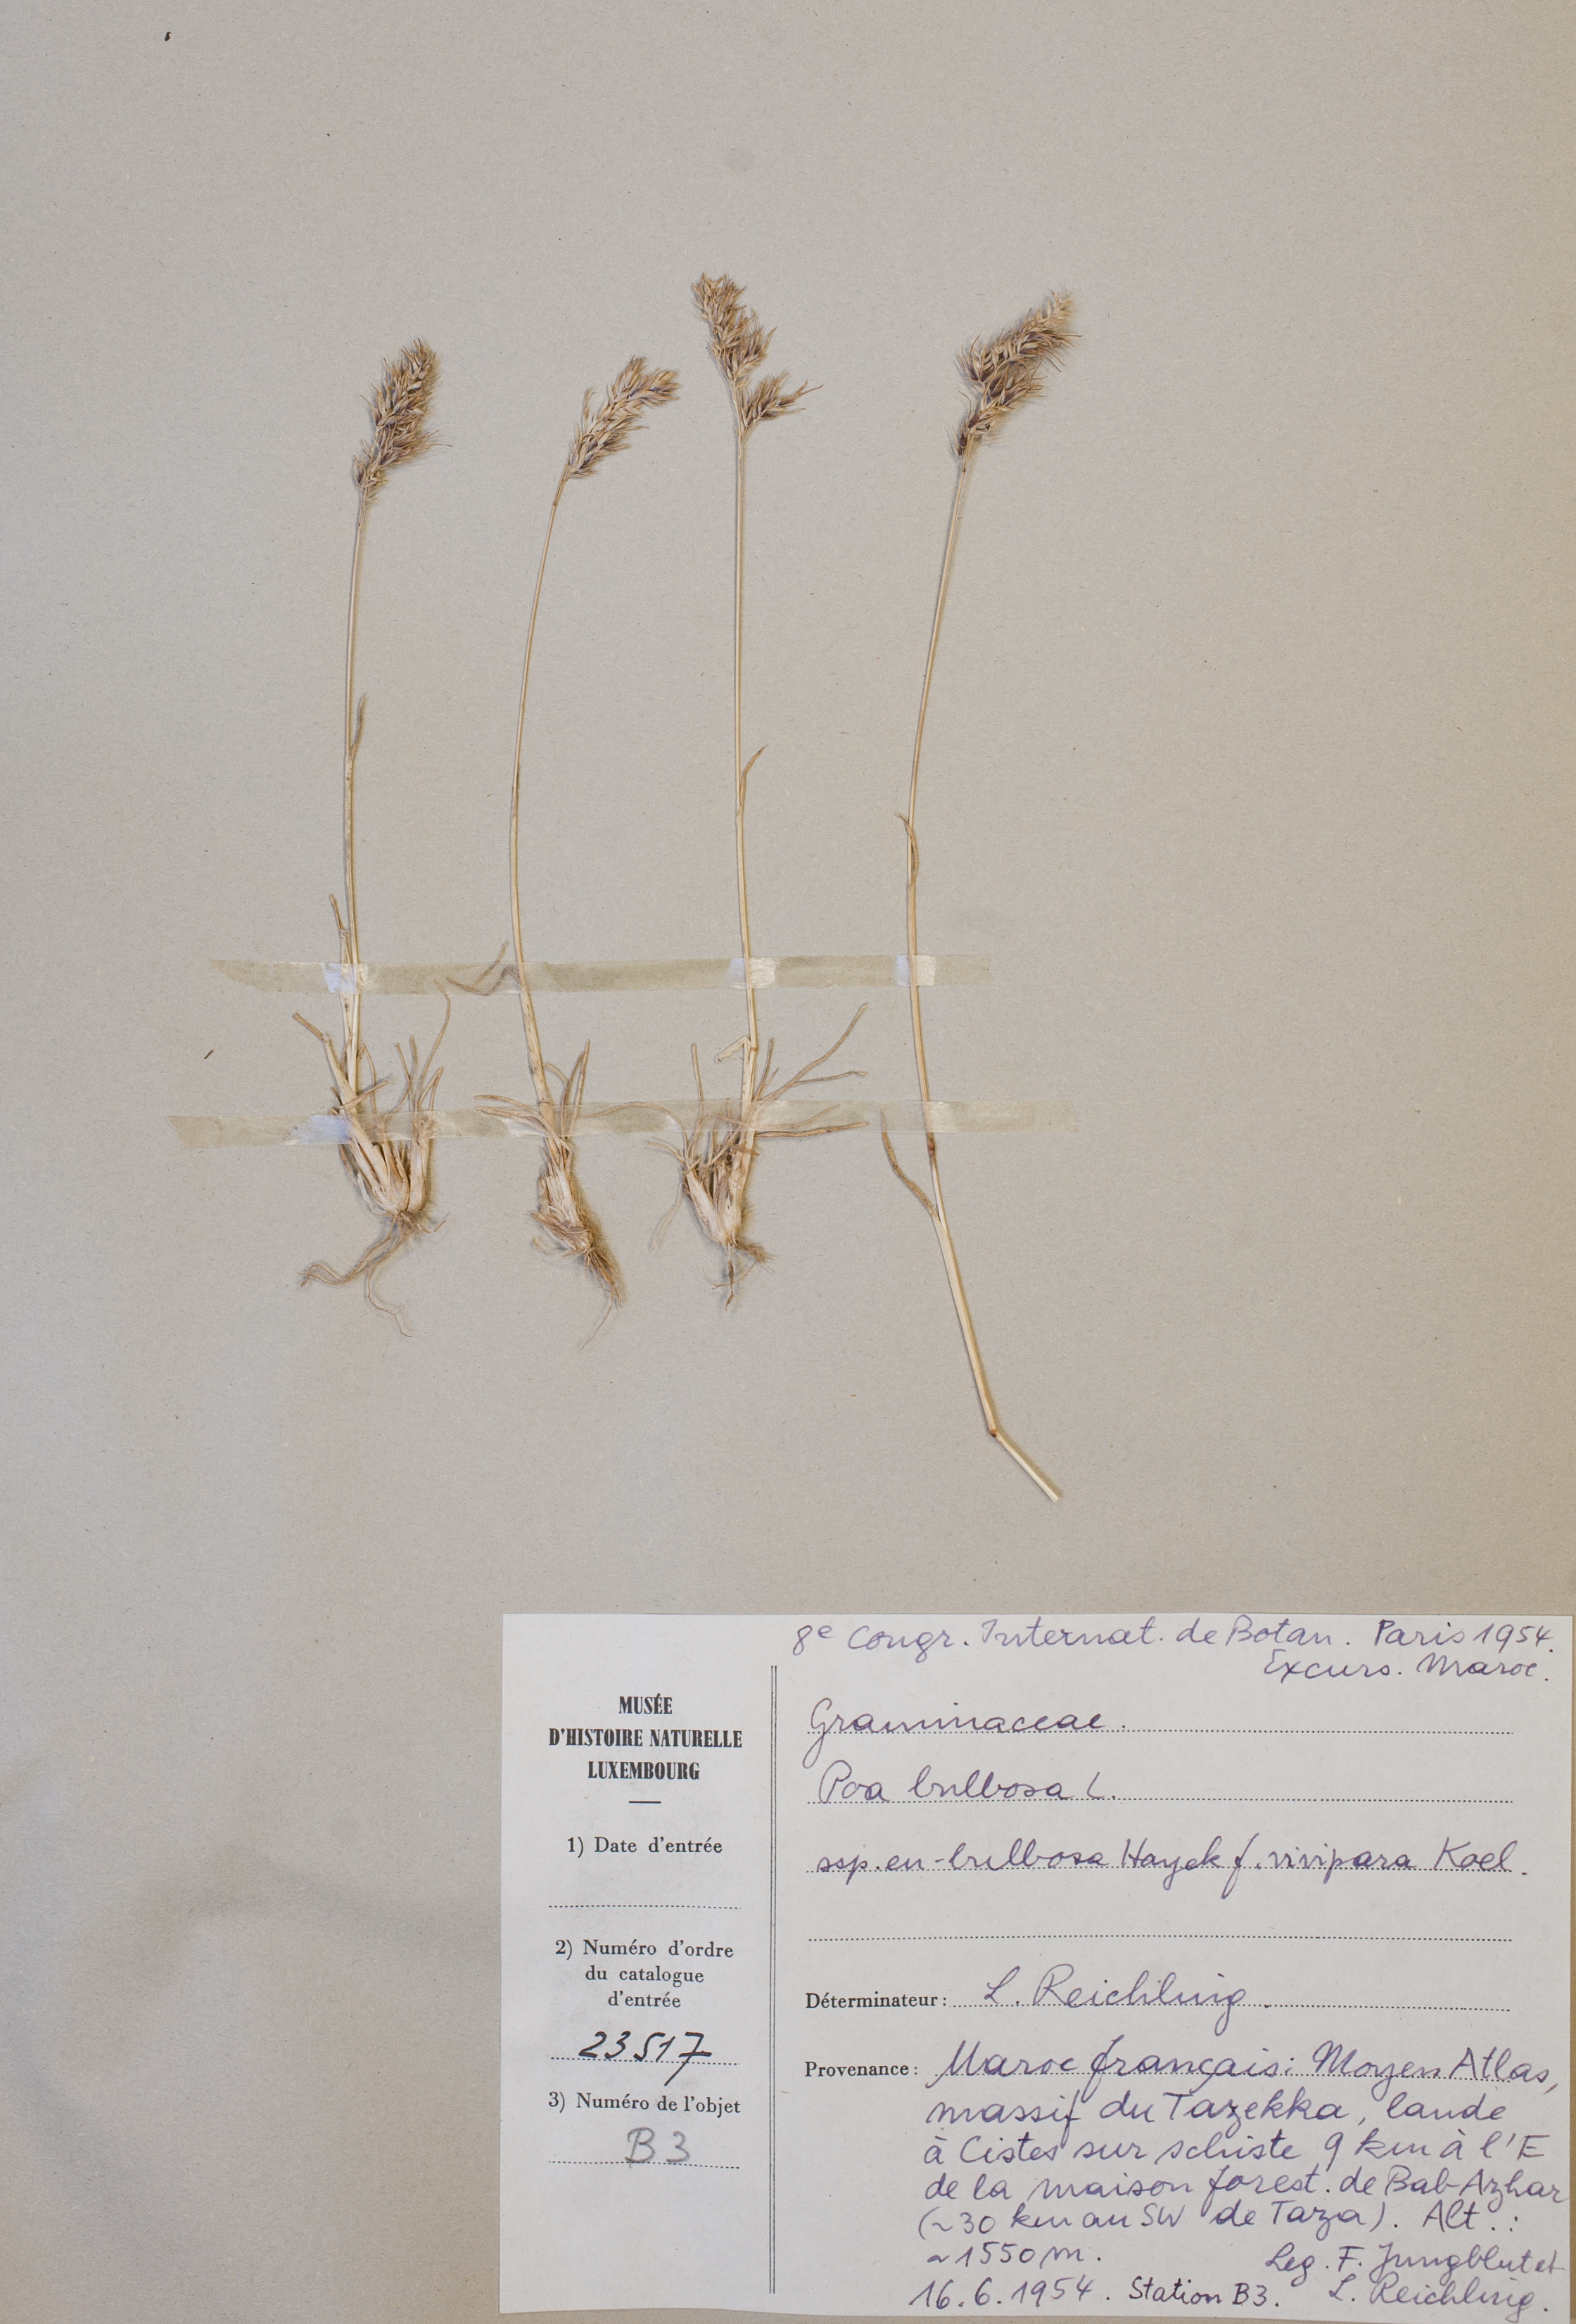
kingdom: Plantae
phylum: Tracheophyta
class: Liliopsida
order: Poales
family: Poaceae
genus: Poa
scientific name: Poa bulbosa
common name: Bulbous bluegrass
